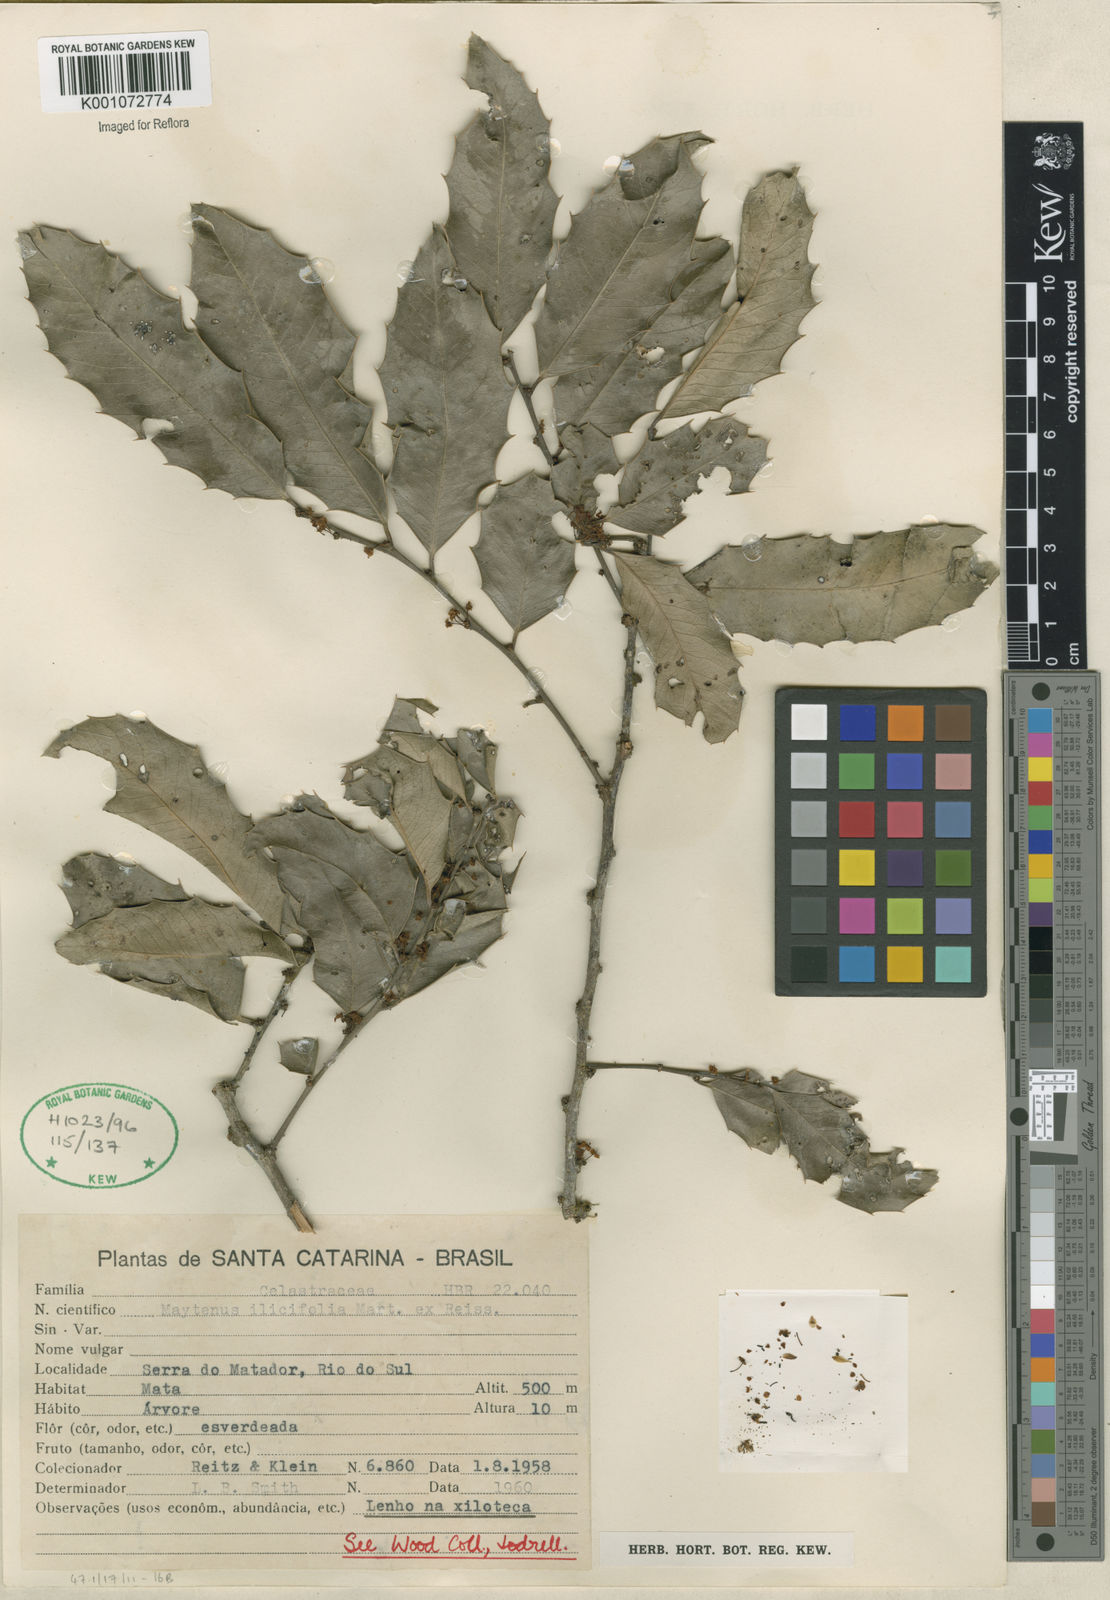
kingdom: Plantae
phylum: Tracheophyta
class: Magnoliopsida
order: Celastrales
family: Celastraceae
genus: Monteverdia
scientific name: Monteverdia ilicifolia
